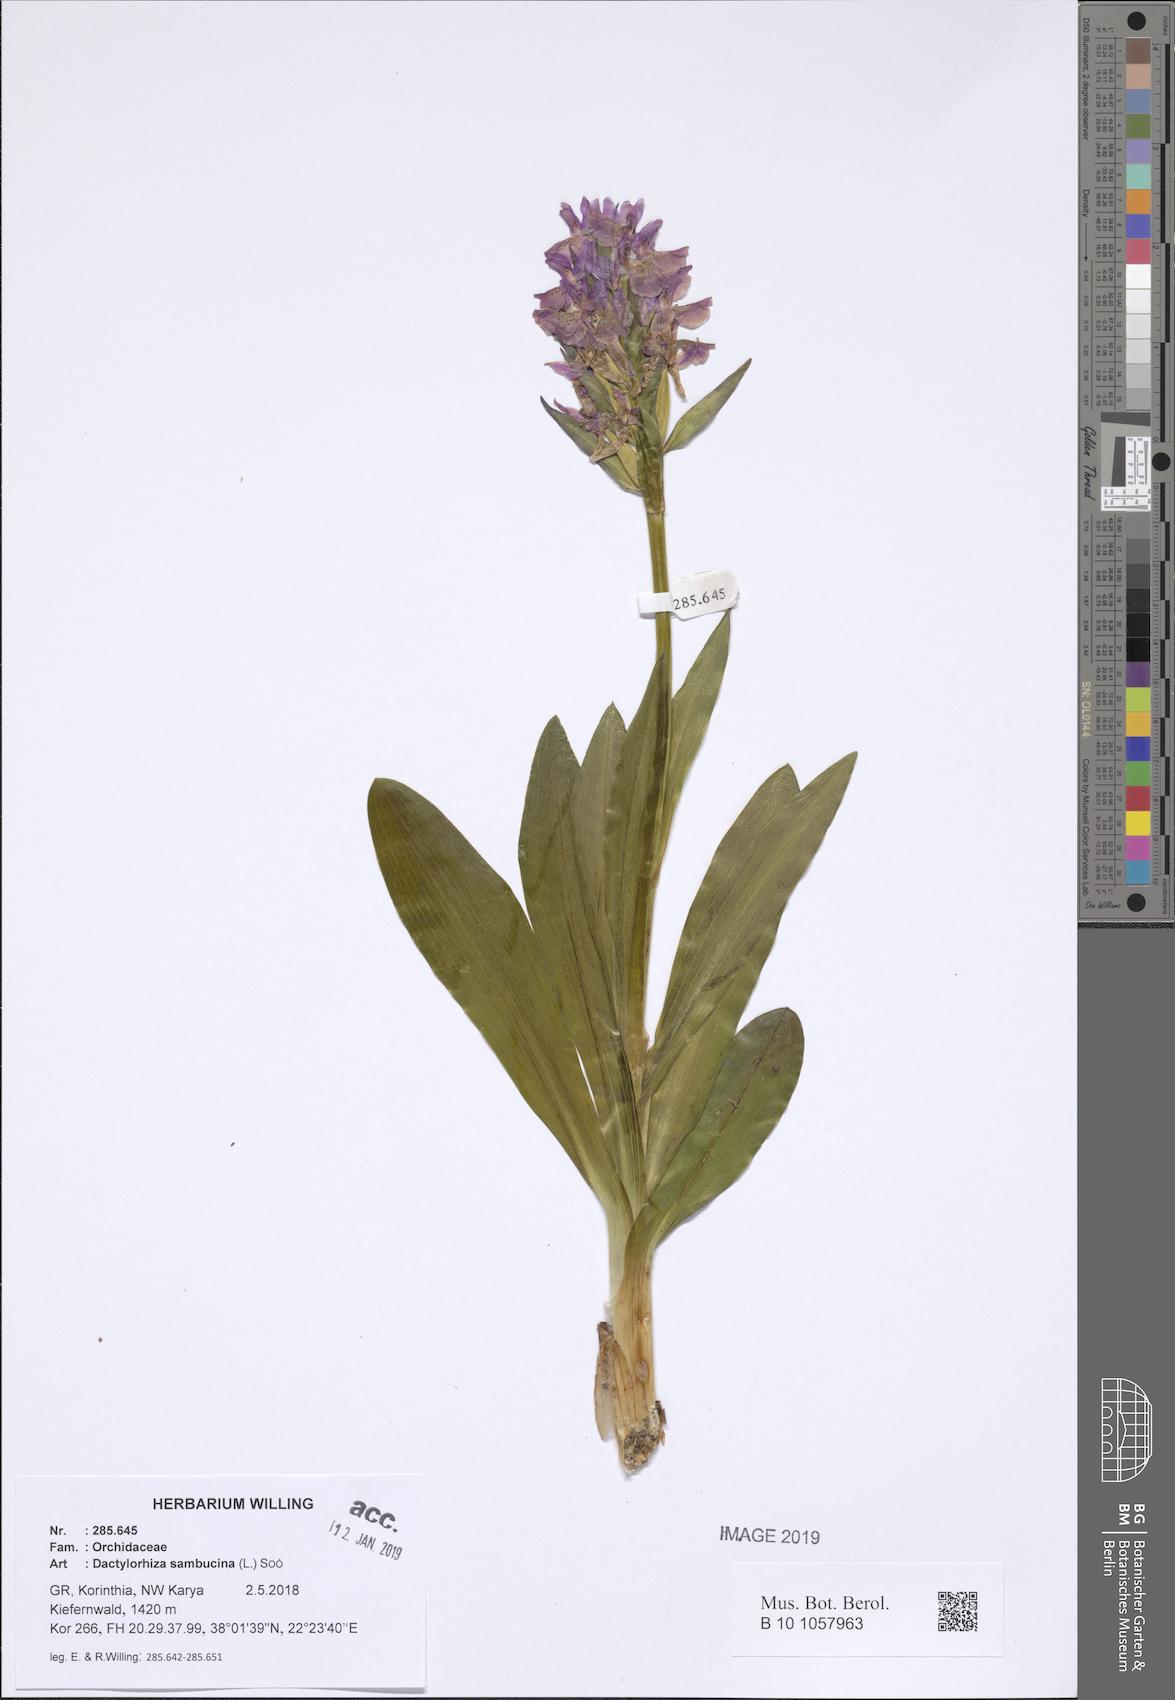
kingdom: Plantae
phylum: Tracheophyta
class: Liliopsida
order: Asparagales
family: Orchidaceae
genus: Dactylorhiza
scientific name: Dactylorhiza sambucina
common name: Elder-flowered orchid
